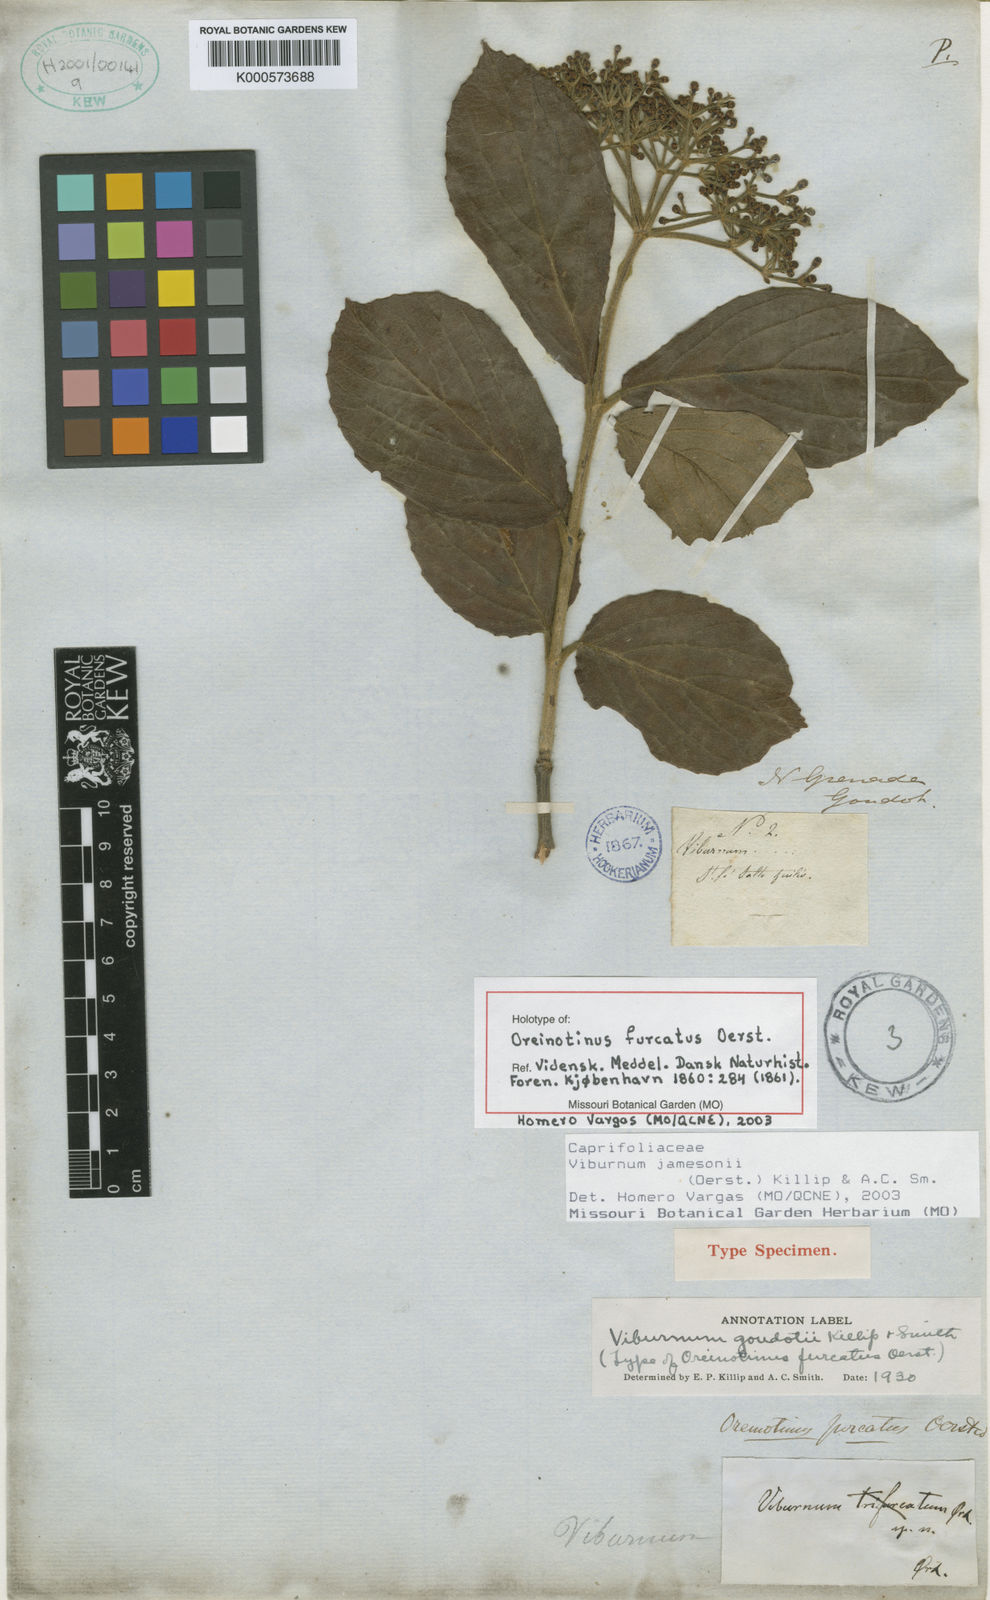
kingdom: Plantae
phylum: Tracheophyta
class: Magnoliopsida
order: Dipsacales
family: Viburnaceae
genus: Viburnum
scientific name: Viburnum jamesonii
